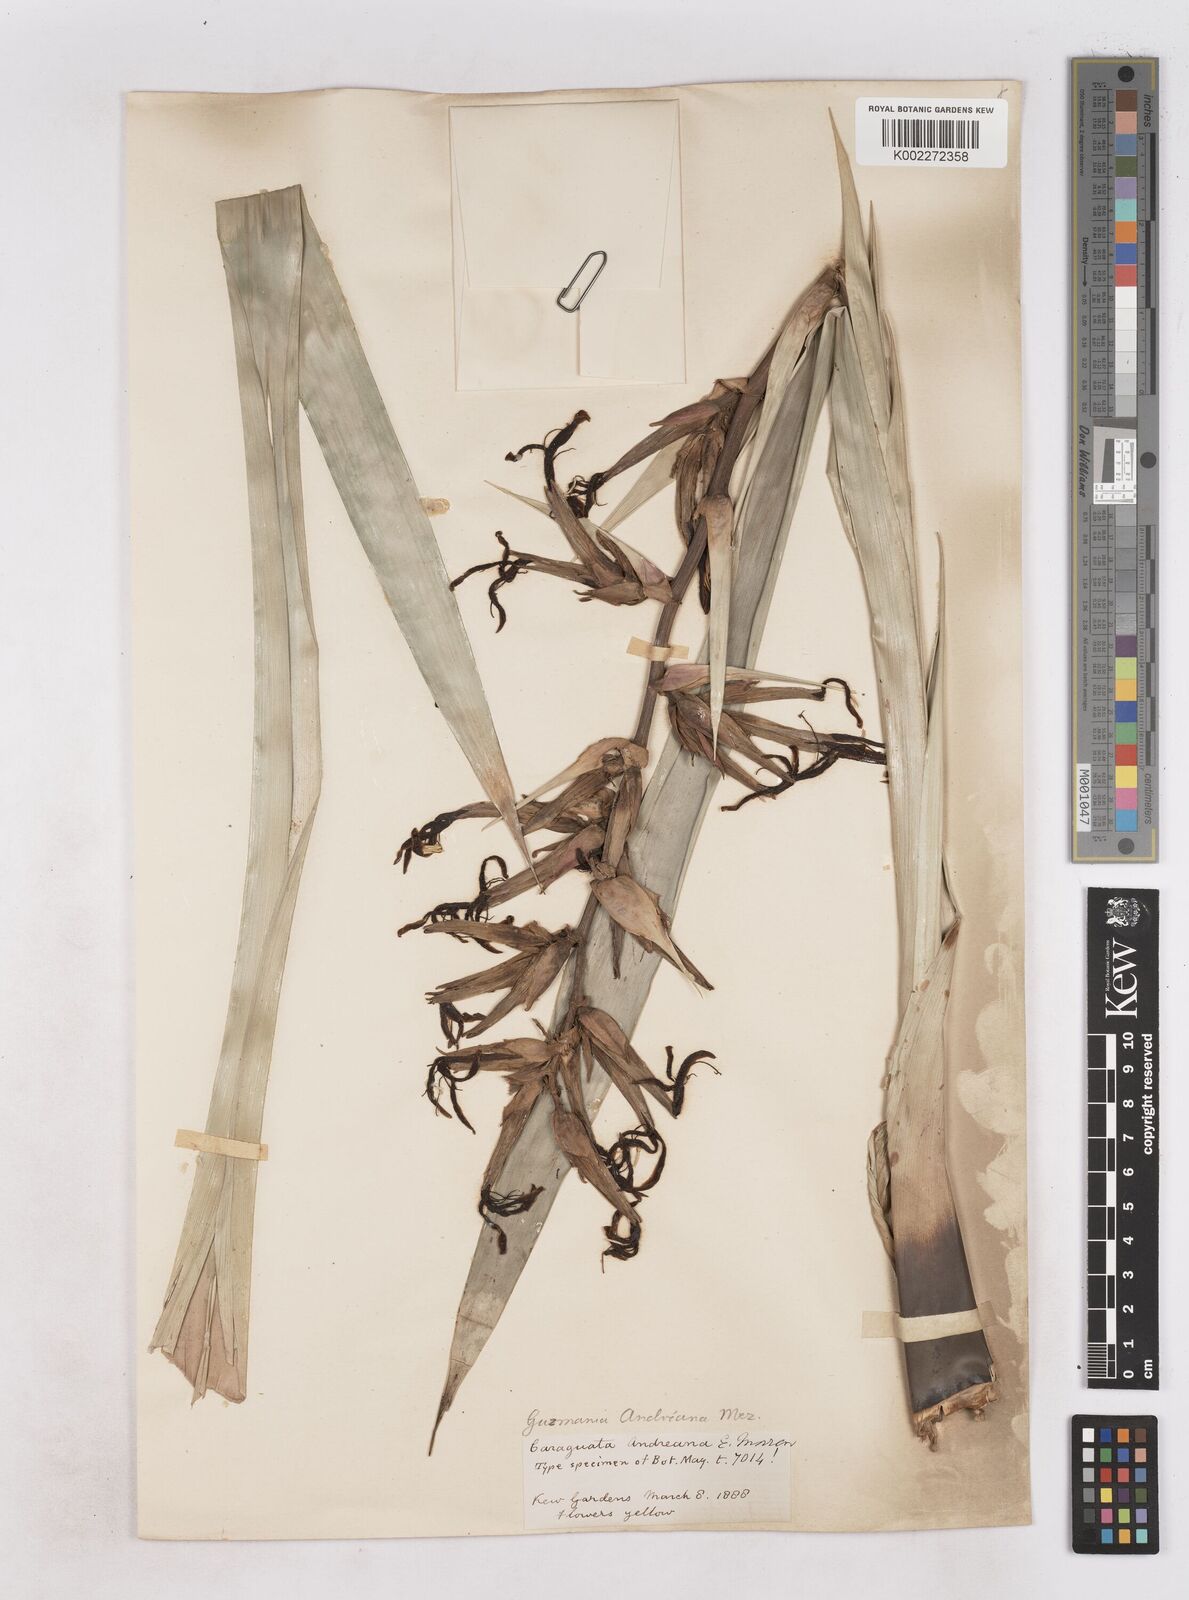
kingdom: Plantae
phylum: Tracheophyta
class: Liliopsida
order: Poales
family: Bromeliaceae
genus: Guzmania
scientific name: Guzmania andreana
